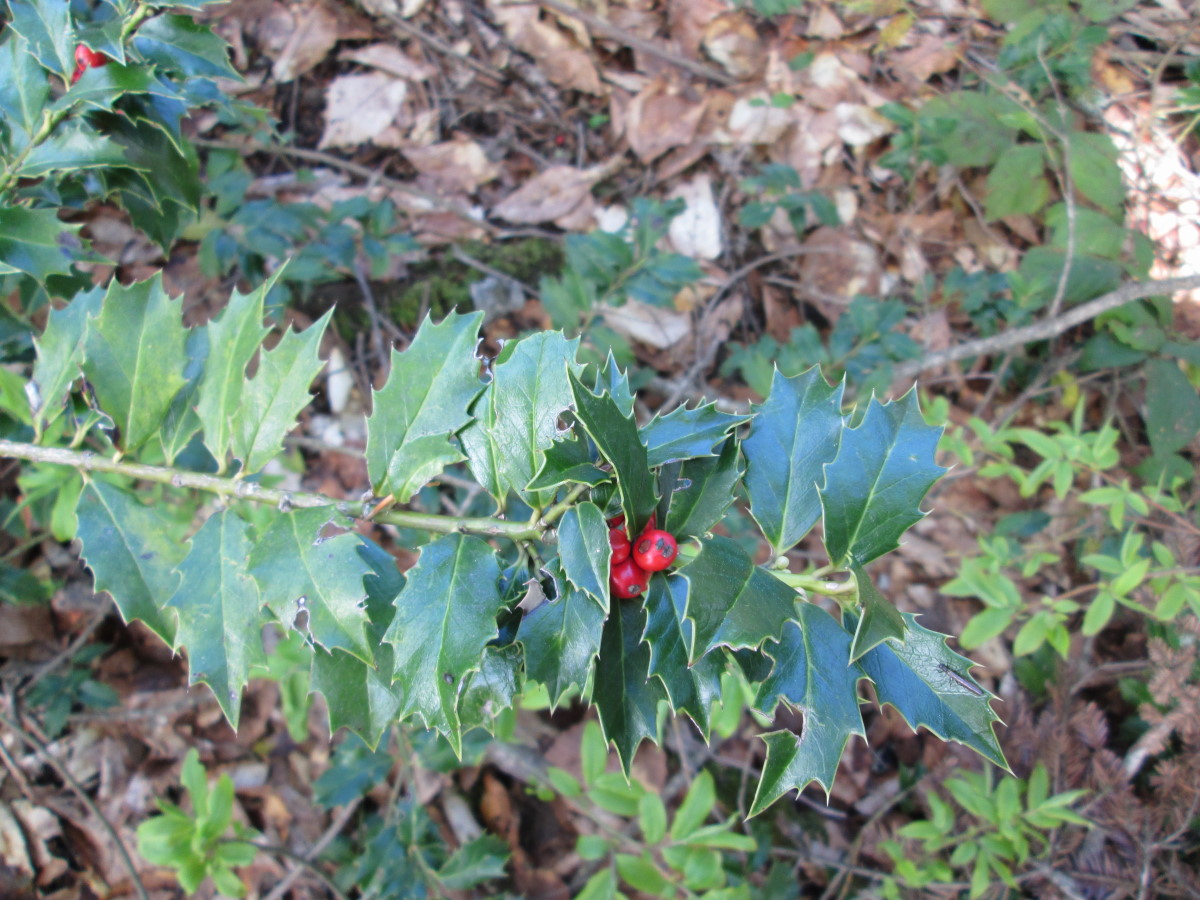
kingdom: Plantae
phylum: Tracheophyta
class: Liliopsida
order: Asparagales
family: Asparagaceae
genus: Ruscus
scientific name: Ruscus colchicus
